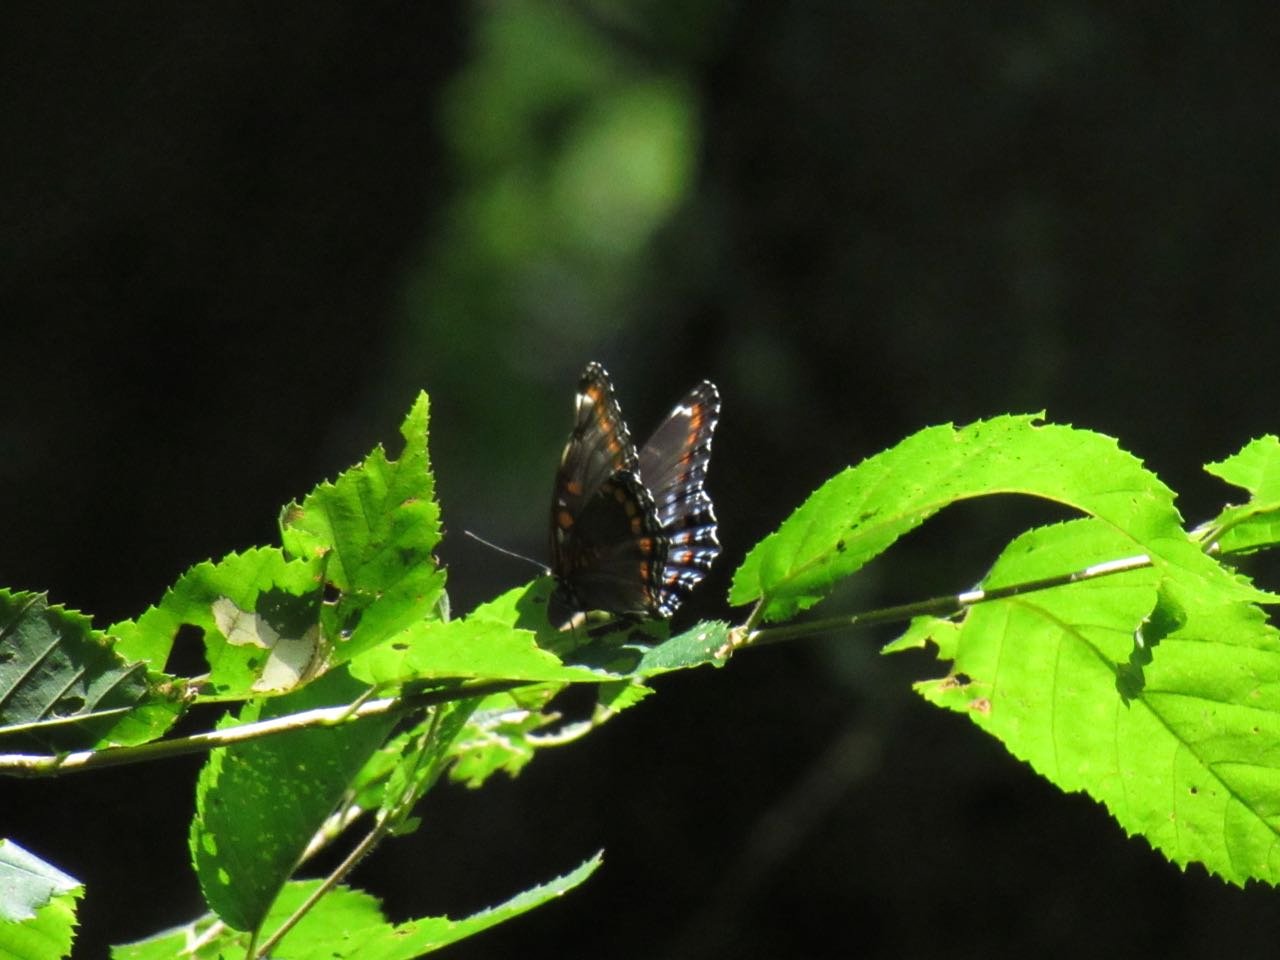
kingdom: Animalia
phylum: Arthropoda
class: Insecta
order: Lepidoptera
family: Nymphalidae
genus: Limenitis
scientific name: Limenitis
